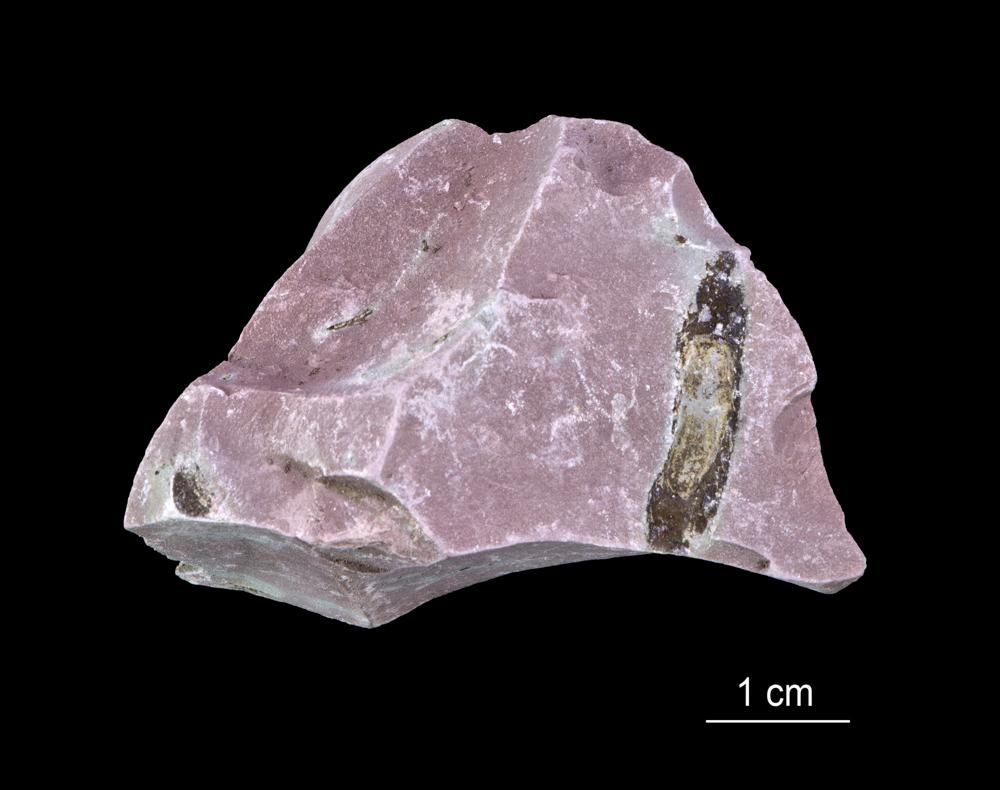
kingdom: Chromista
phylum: Foraminifera
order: Astrorhizida
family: Hyperamminidae
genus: Platysolenites
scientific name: Platysolenites
